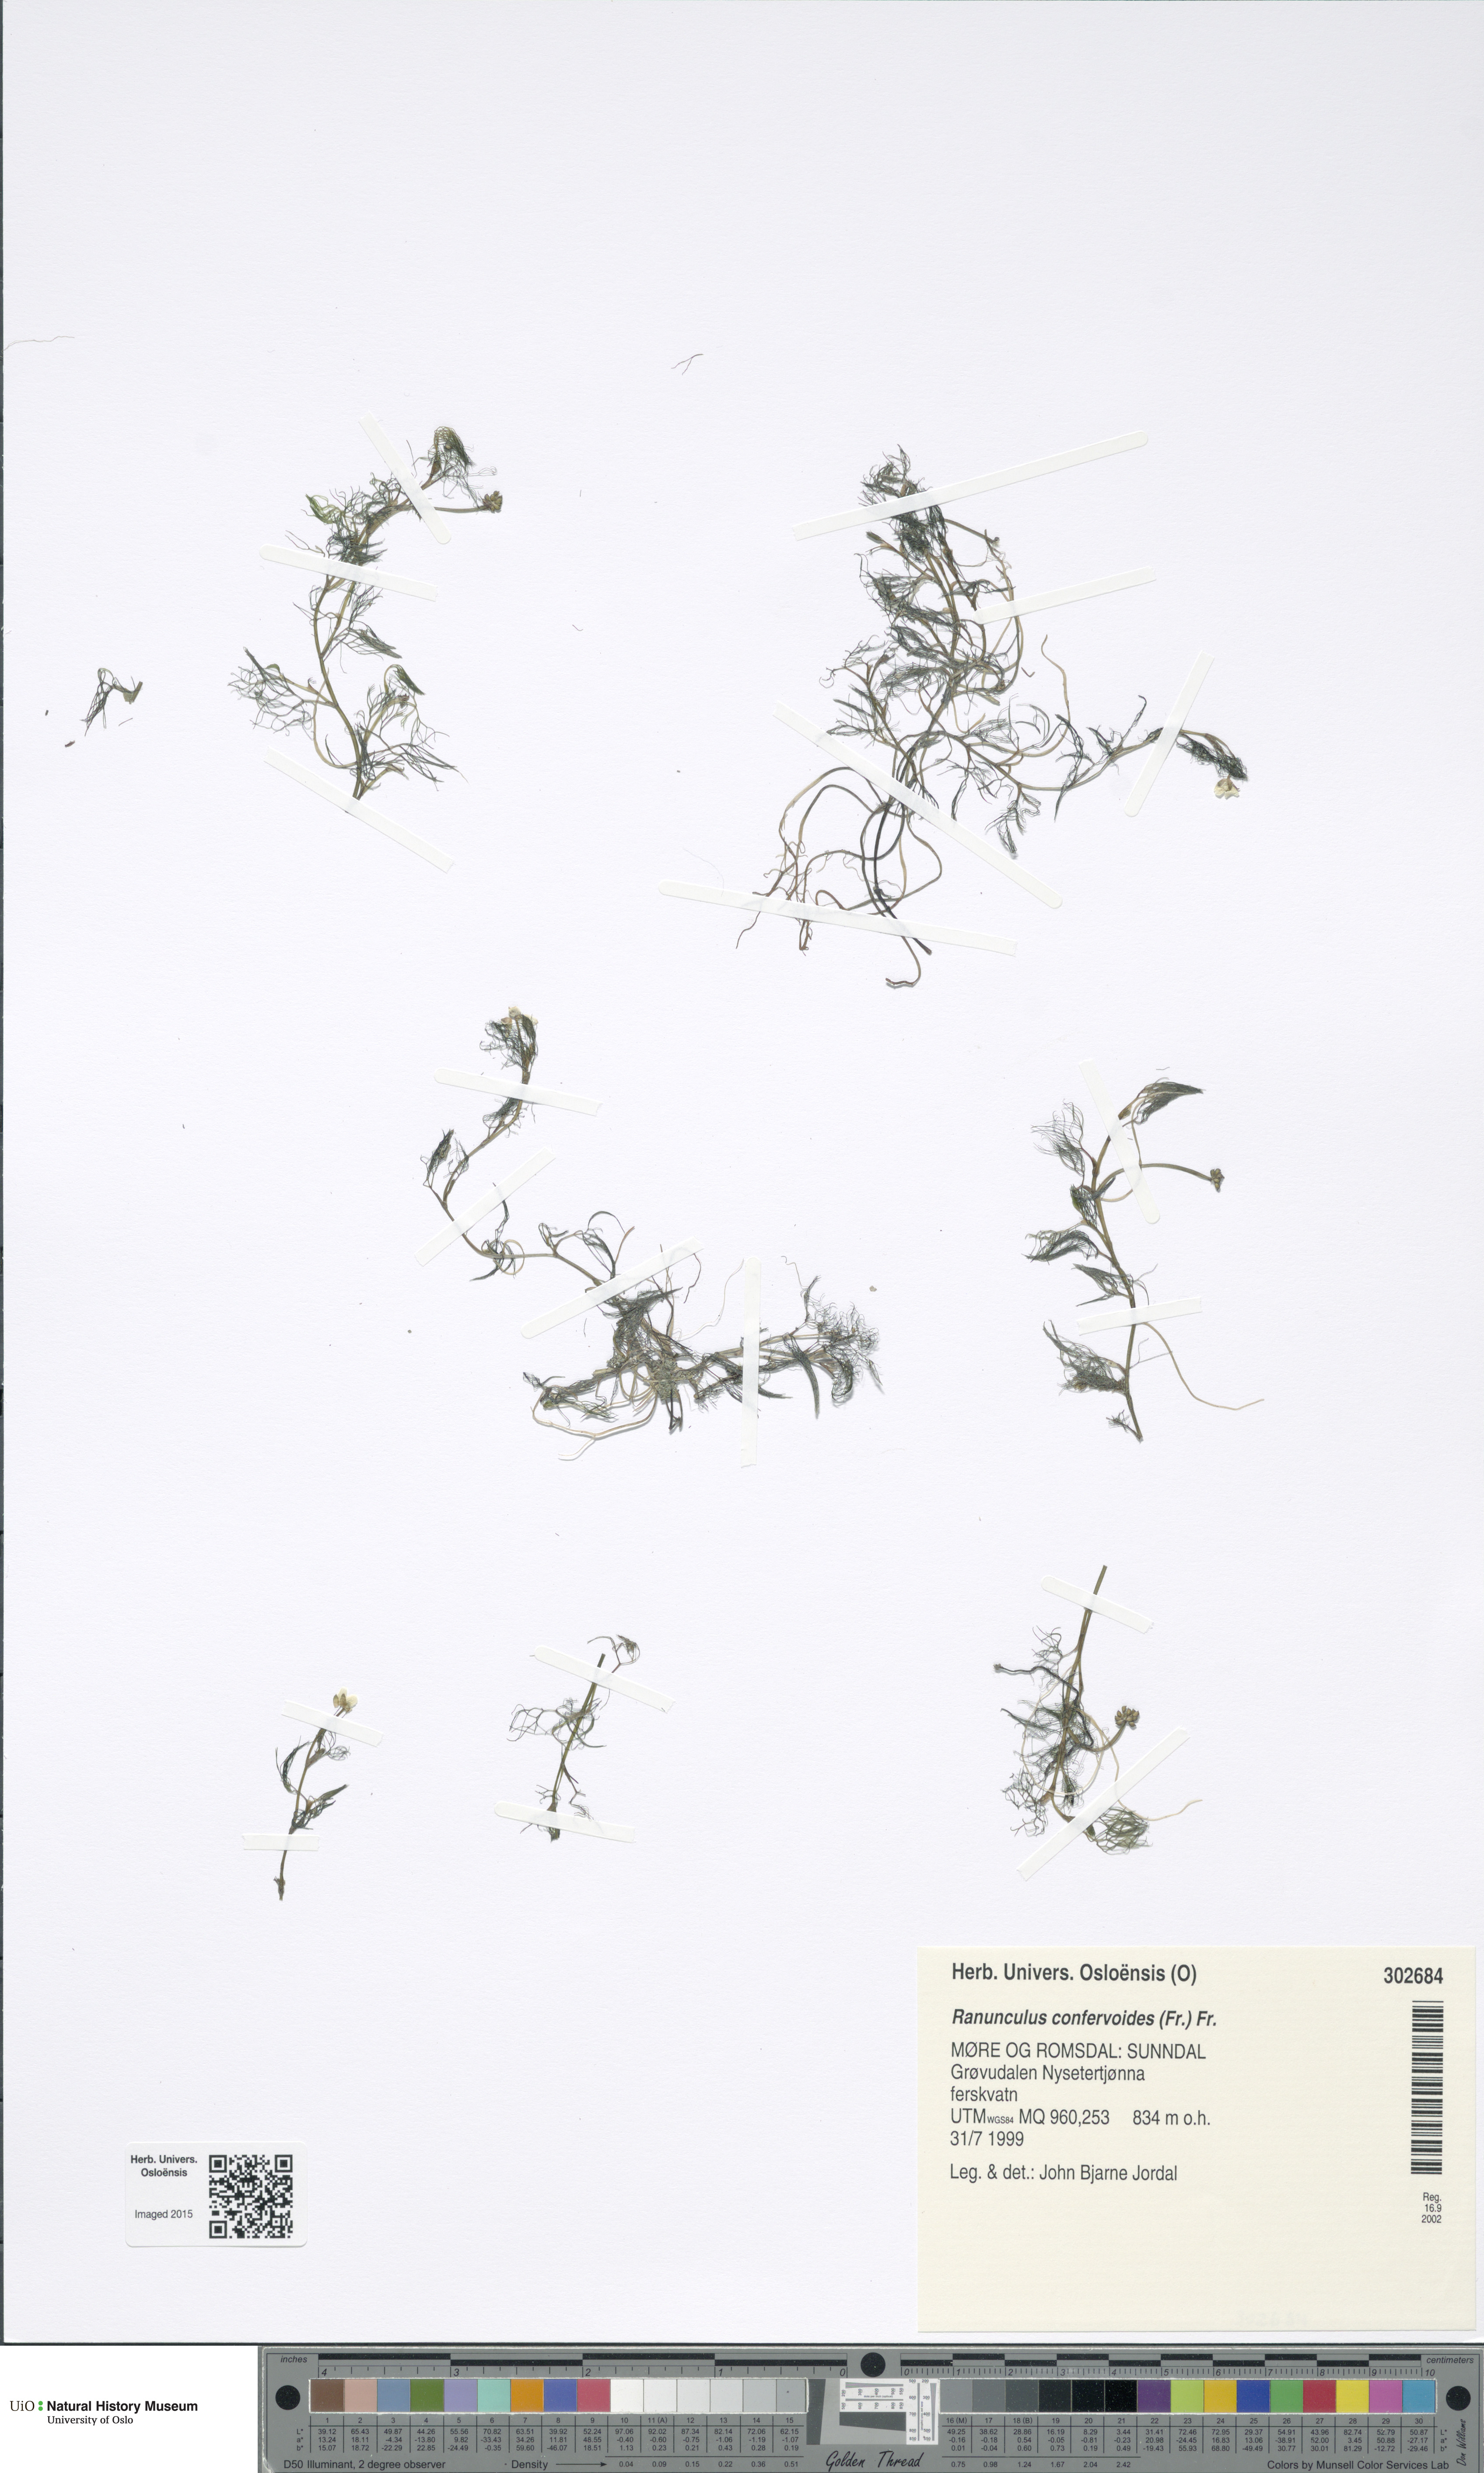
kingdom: Plantae
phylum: Tracheophyta
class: Magnoliopsida
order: Ranunculales
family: Ranunculaceae
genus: Ranunculus
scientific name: Ranunculus confervoides
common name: Delicate buttercup
